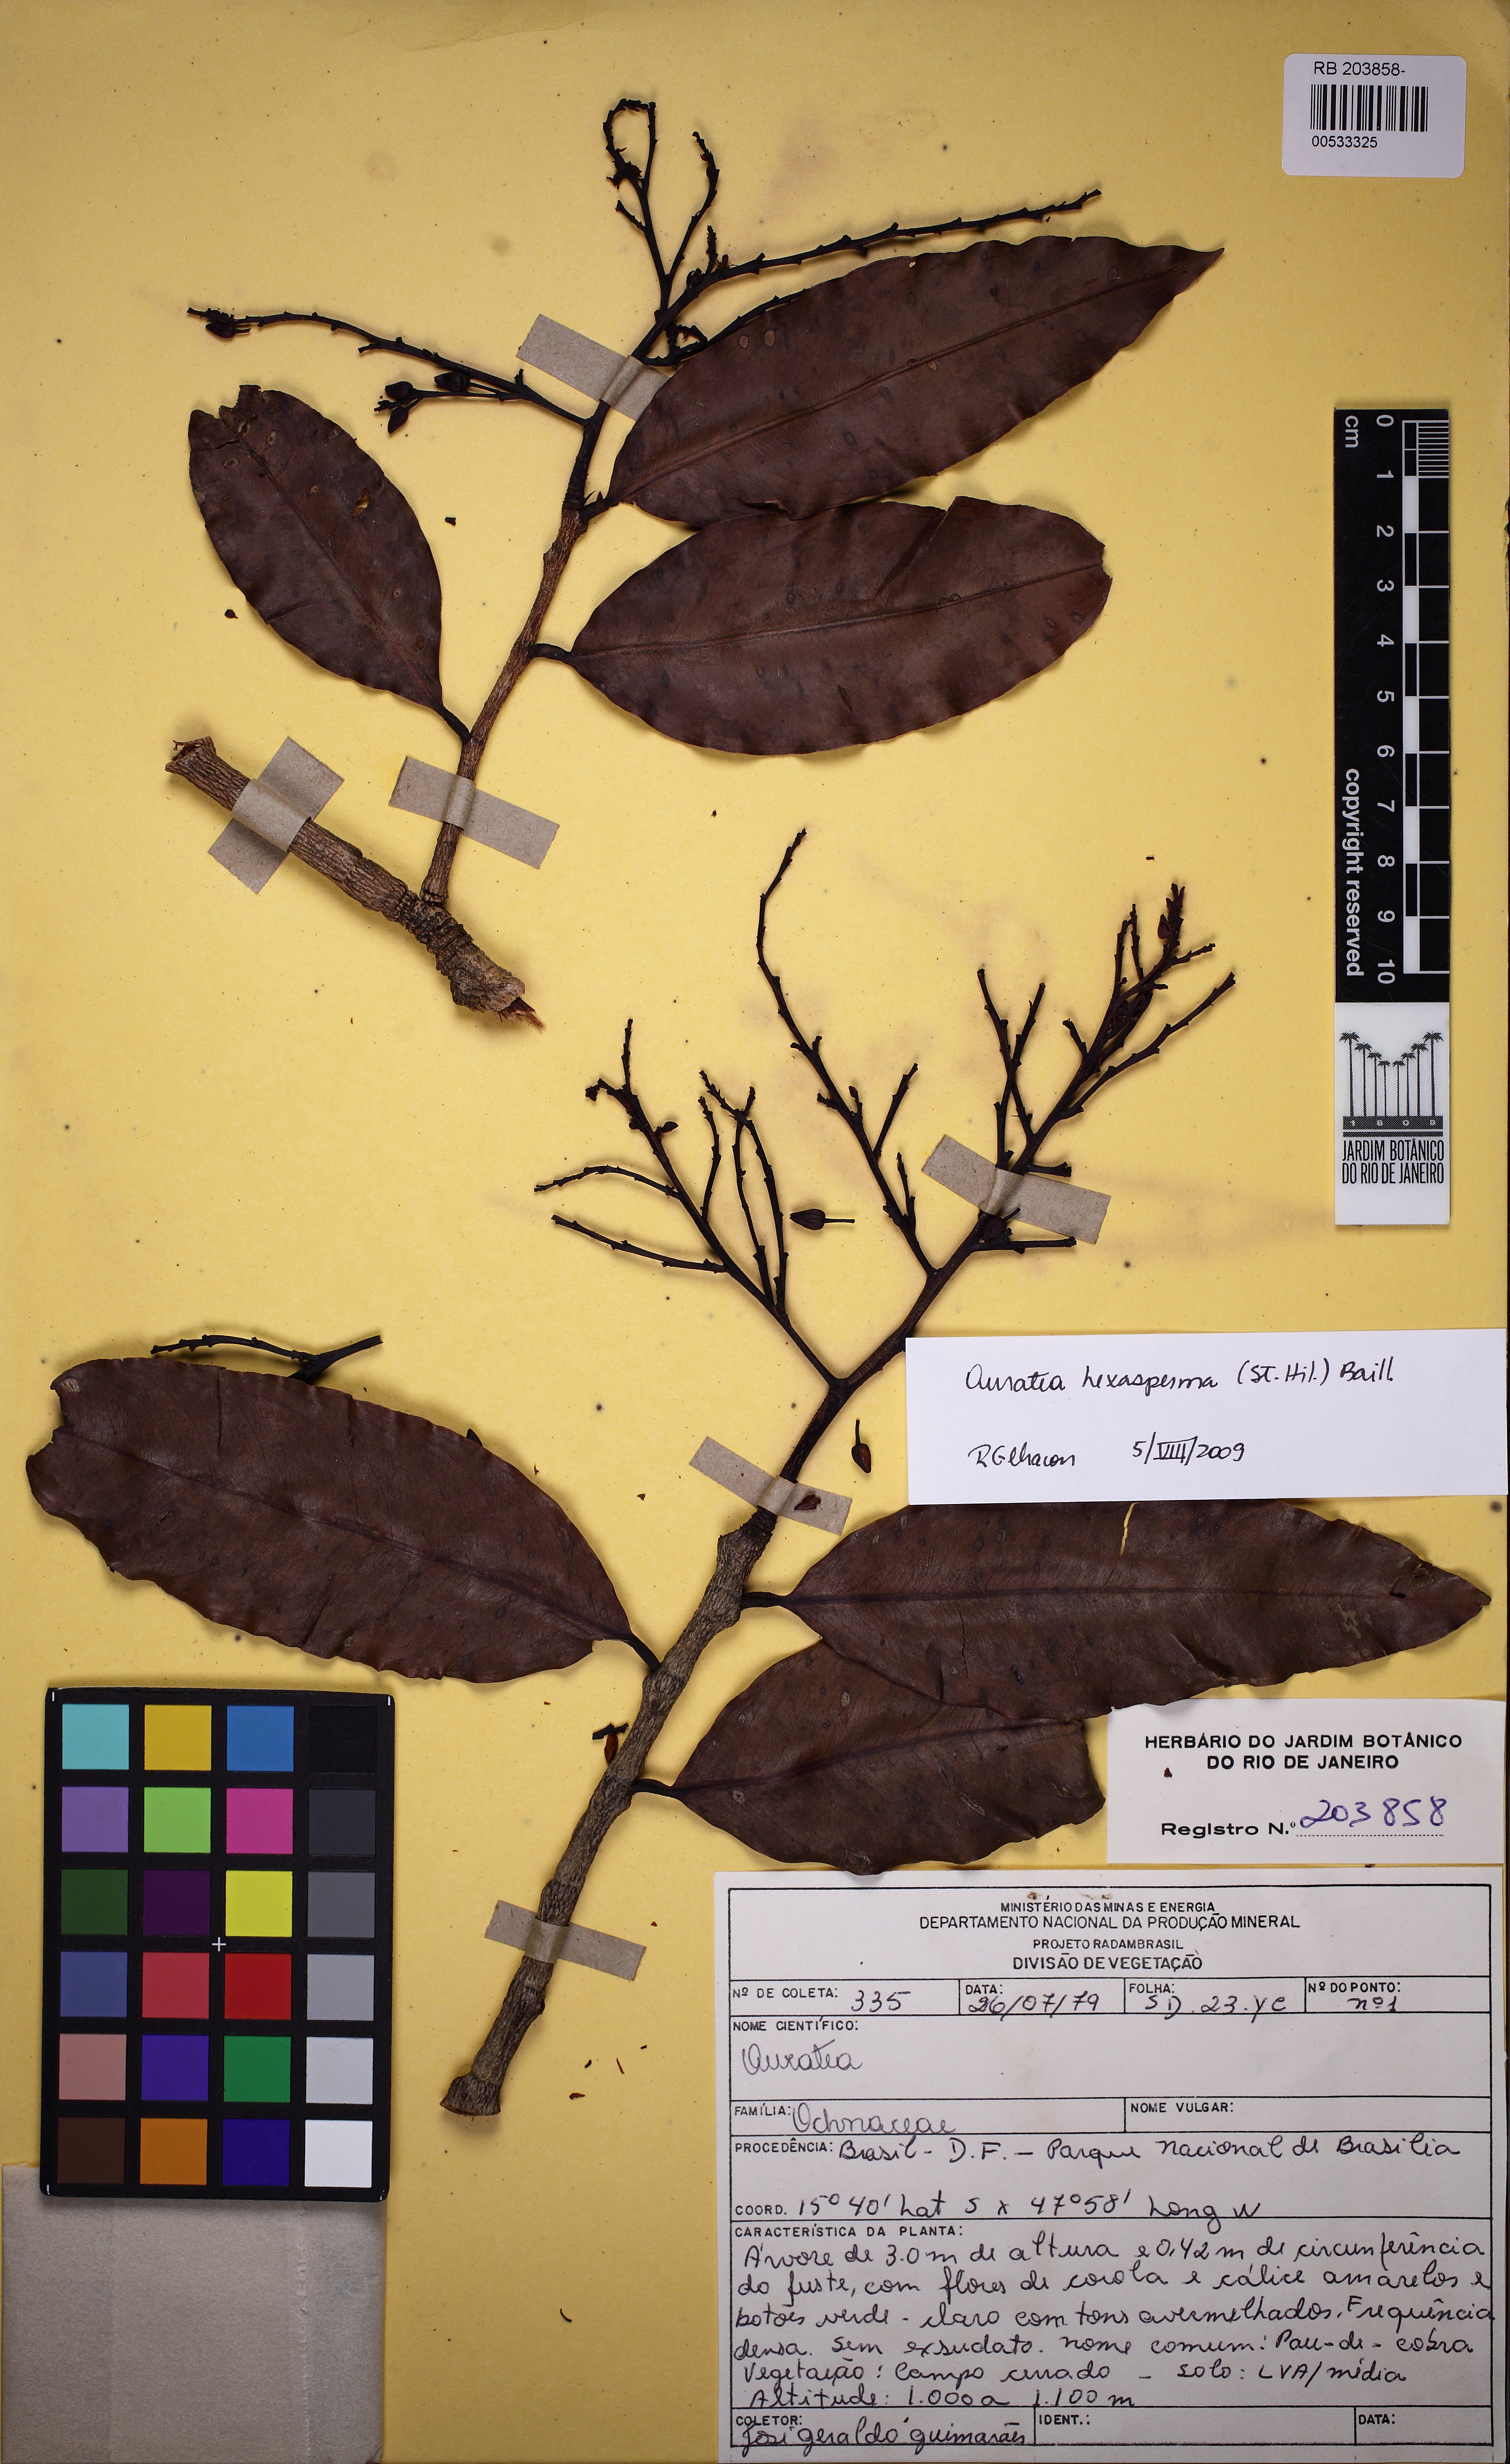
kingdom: Plantae
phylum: Tracheophyta
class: Magnoliopsida
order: Malpighiales
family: Ochnaceae
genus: Ouratea
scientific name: Ouratea hexasperma
